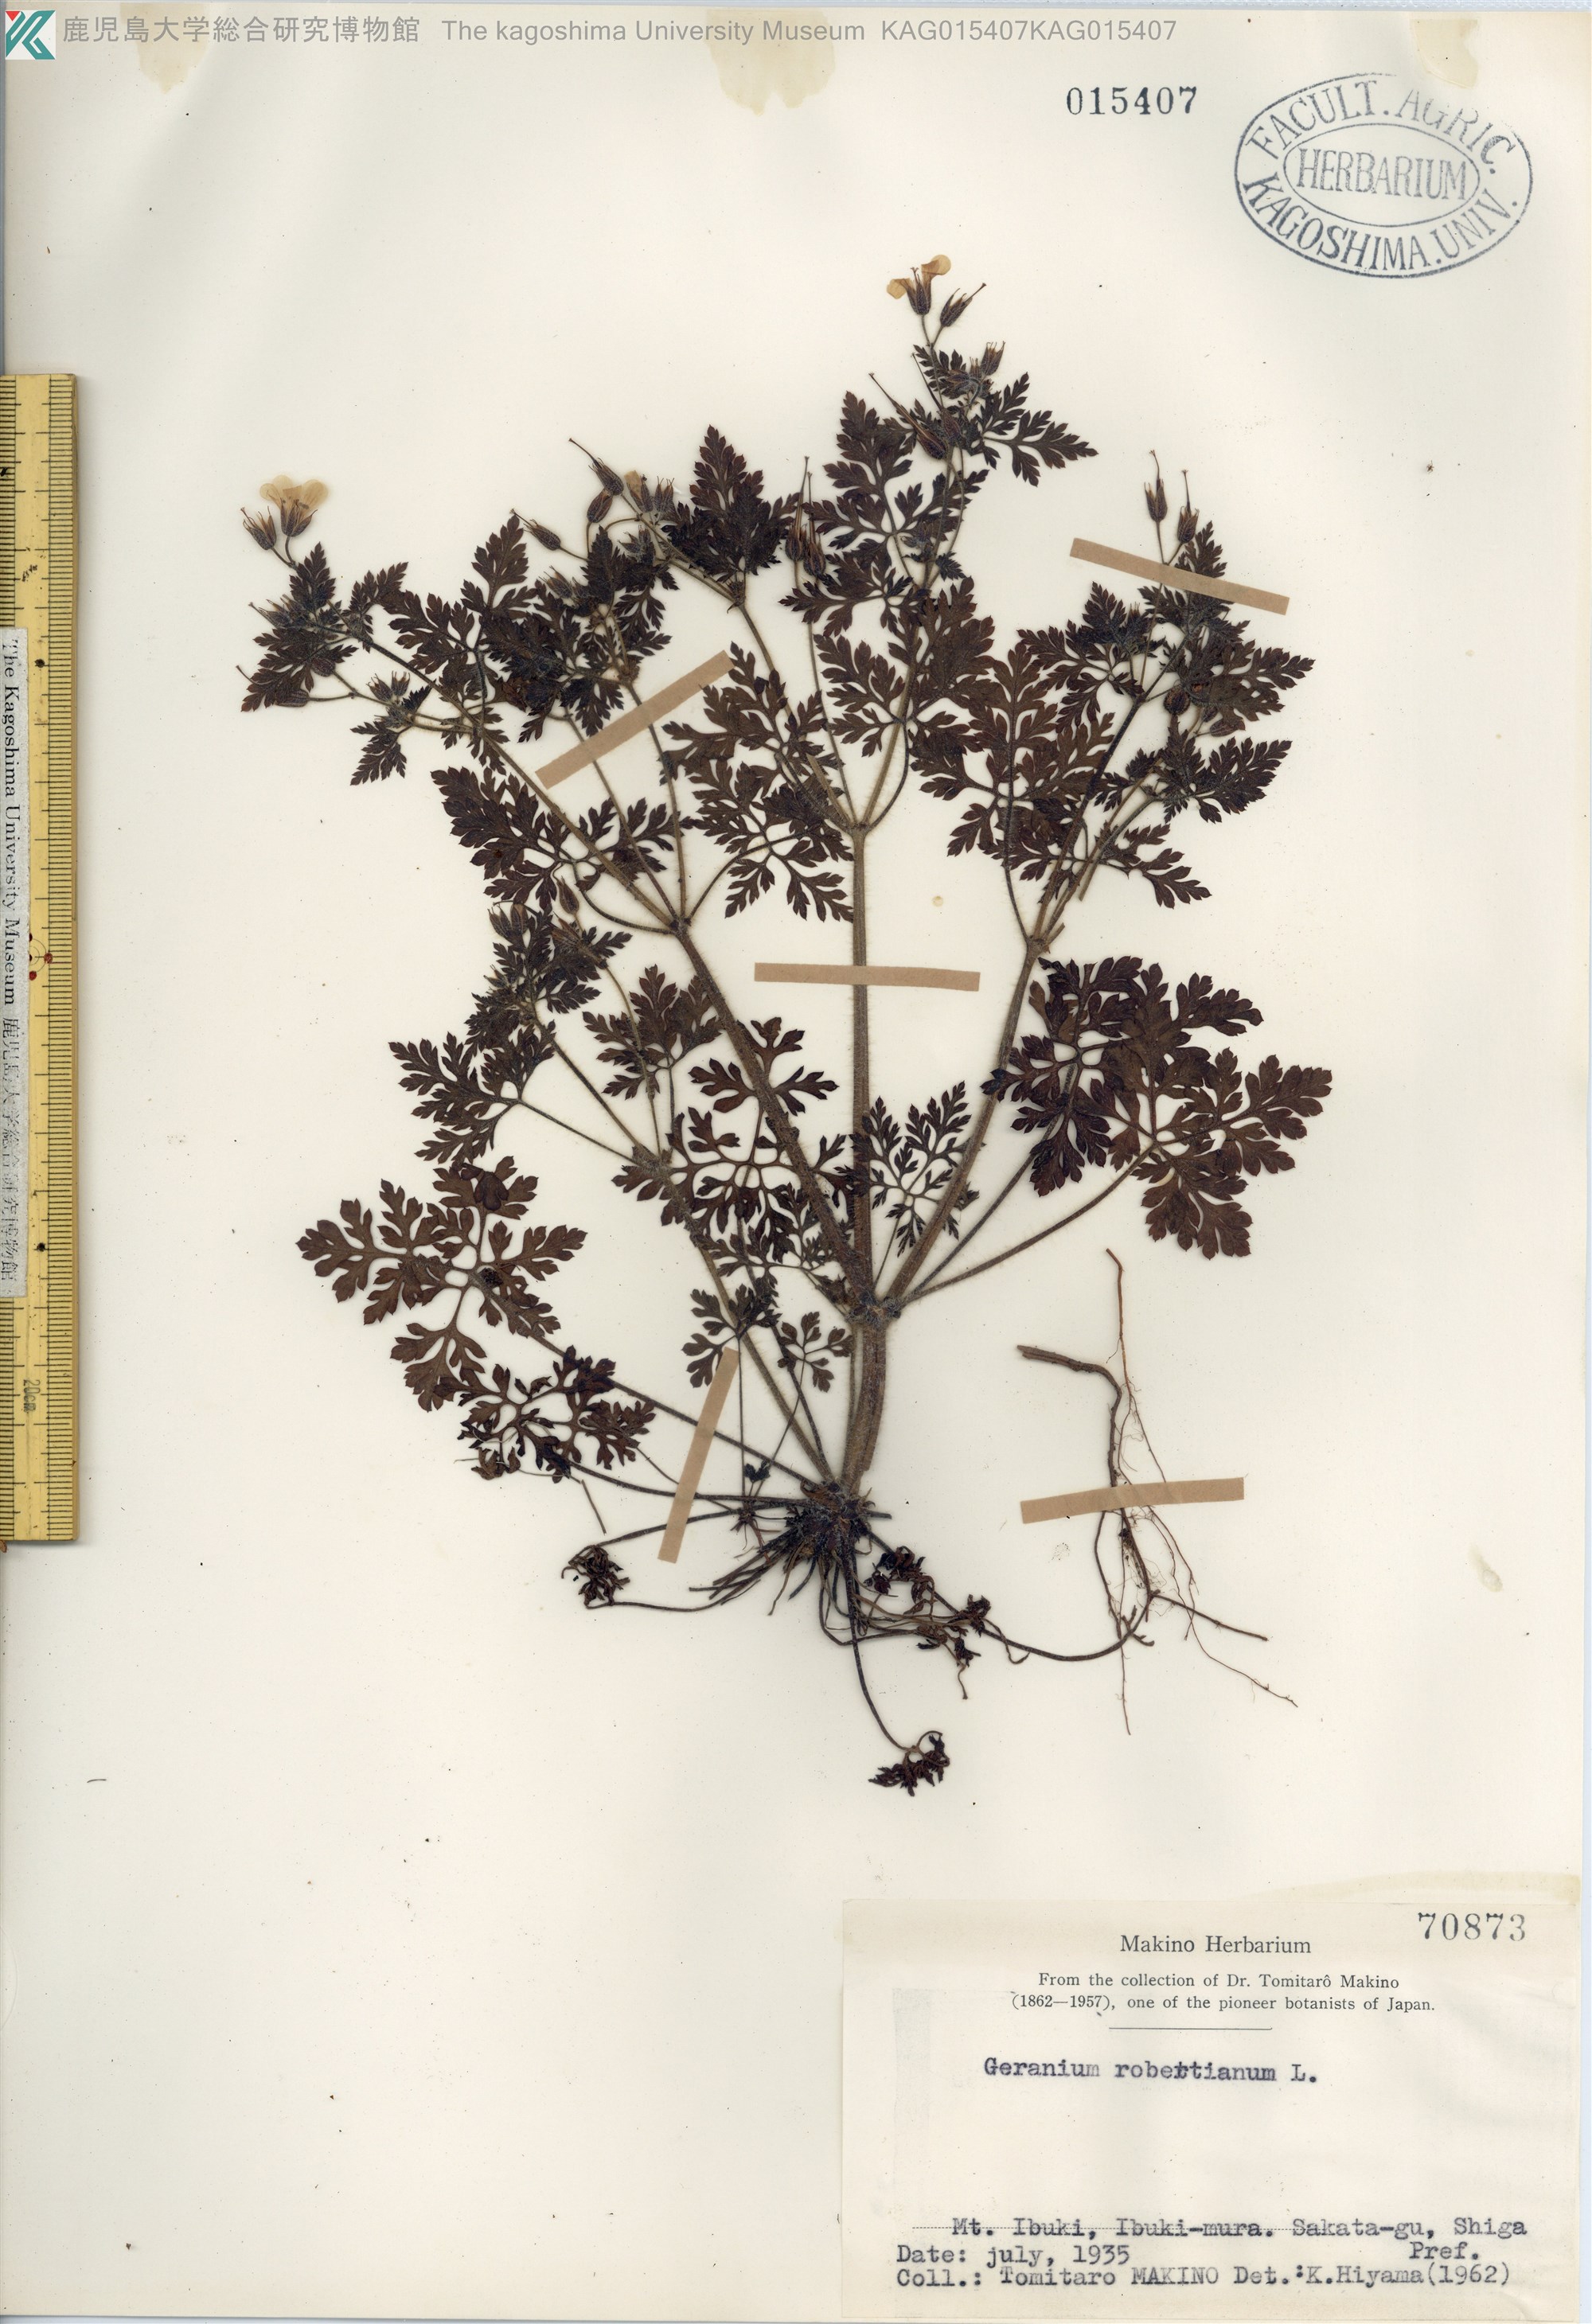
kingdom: Plantae
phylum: Tracheophyta
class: Magnoliopsida
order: Geraniales
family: Geraniaceae
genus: Geranium
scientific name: Geranium robertianum
